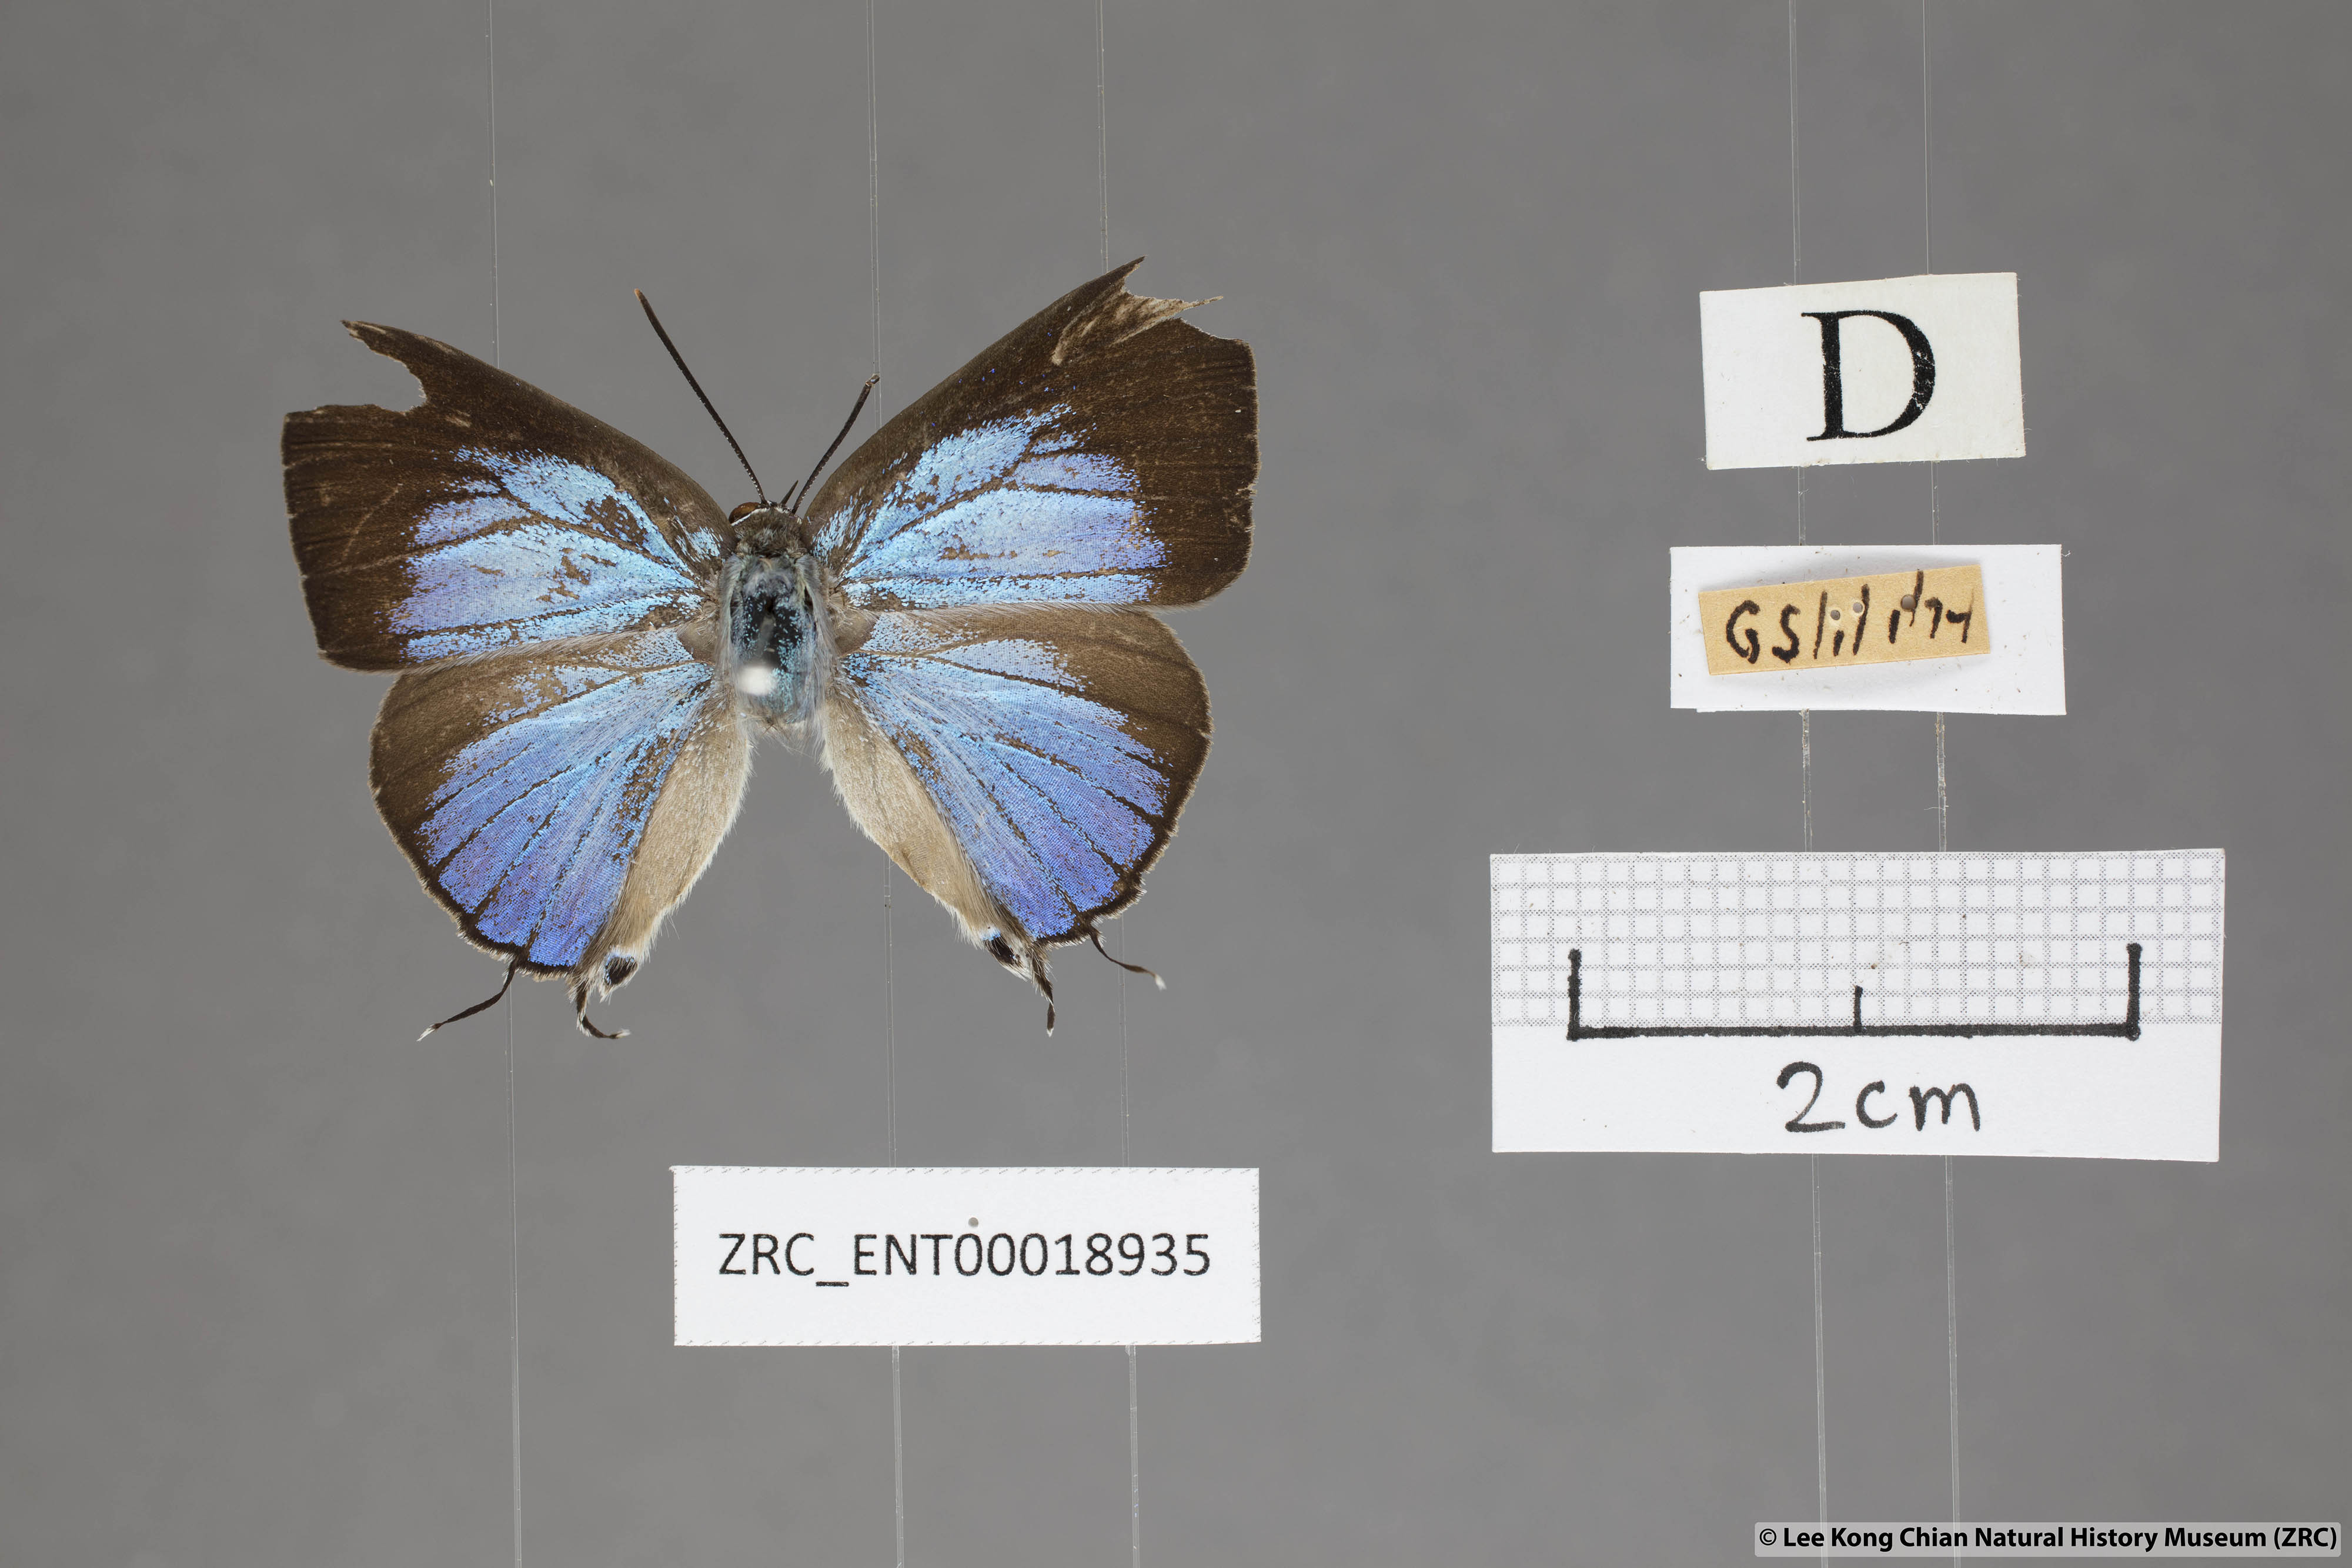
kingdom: Animalia
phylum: Arthropoda
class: Insecta
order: Lepidoptera
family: Lycaenidae
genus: Ancema
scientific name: Ancema blanka
